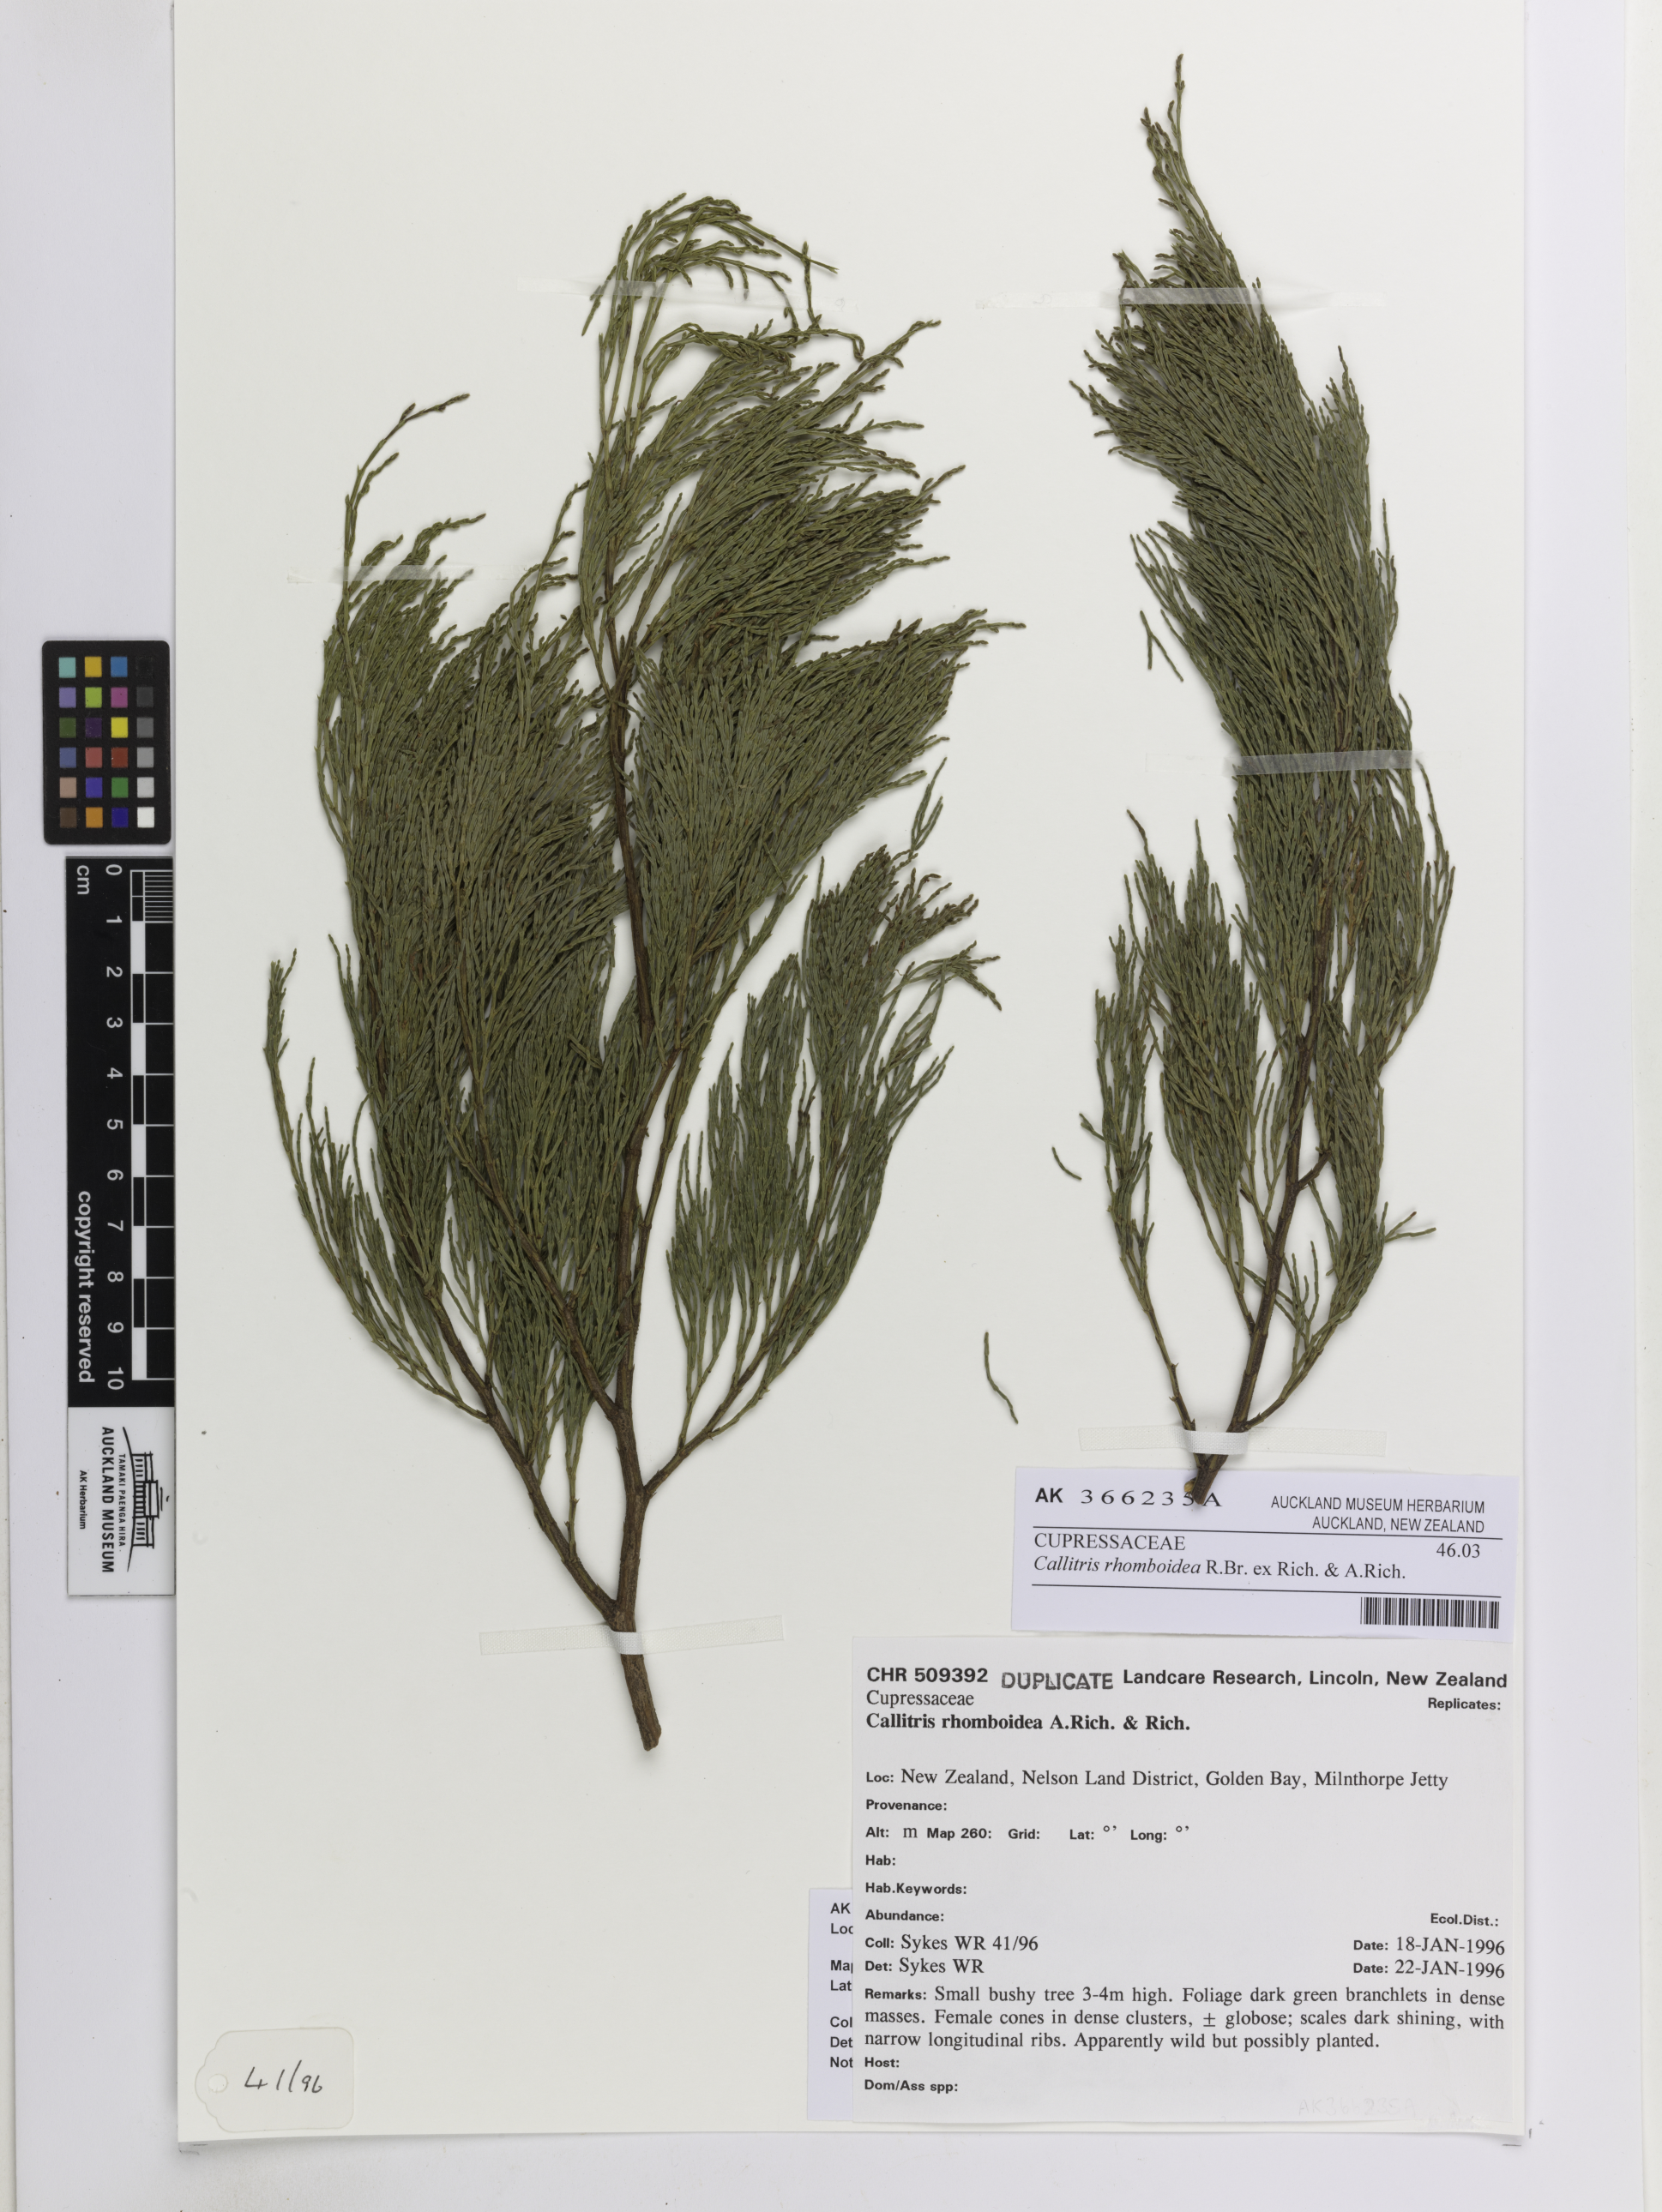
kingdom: Plantae
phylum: Tracheophyta
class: Pinopsida
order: Pinales
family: Cupressaceae
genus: Callitris
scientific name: Callitris rhomboidea
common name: Illawara mountain pine
